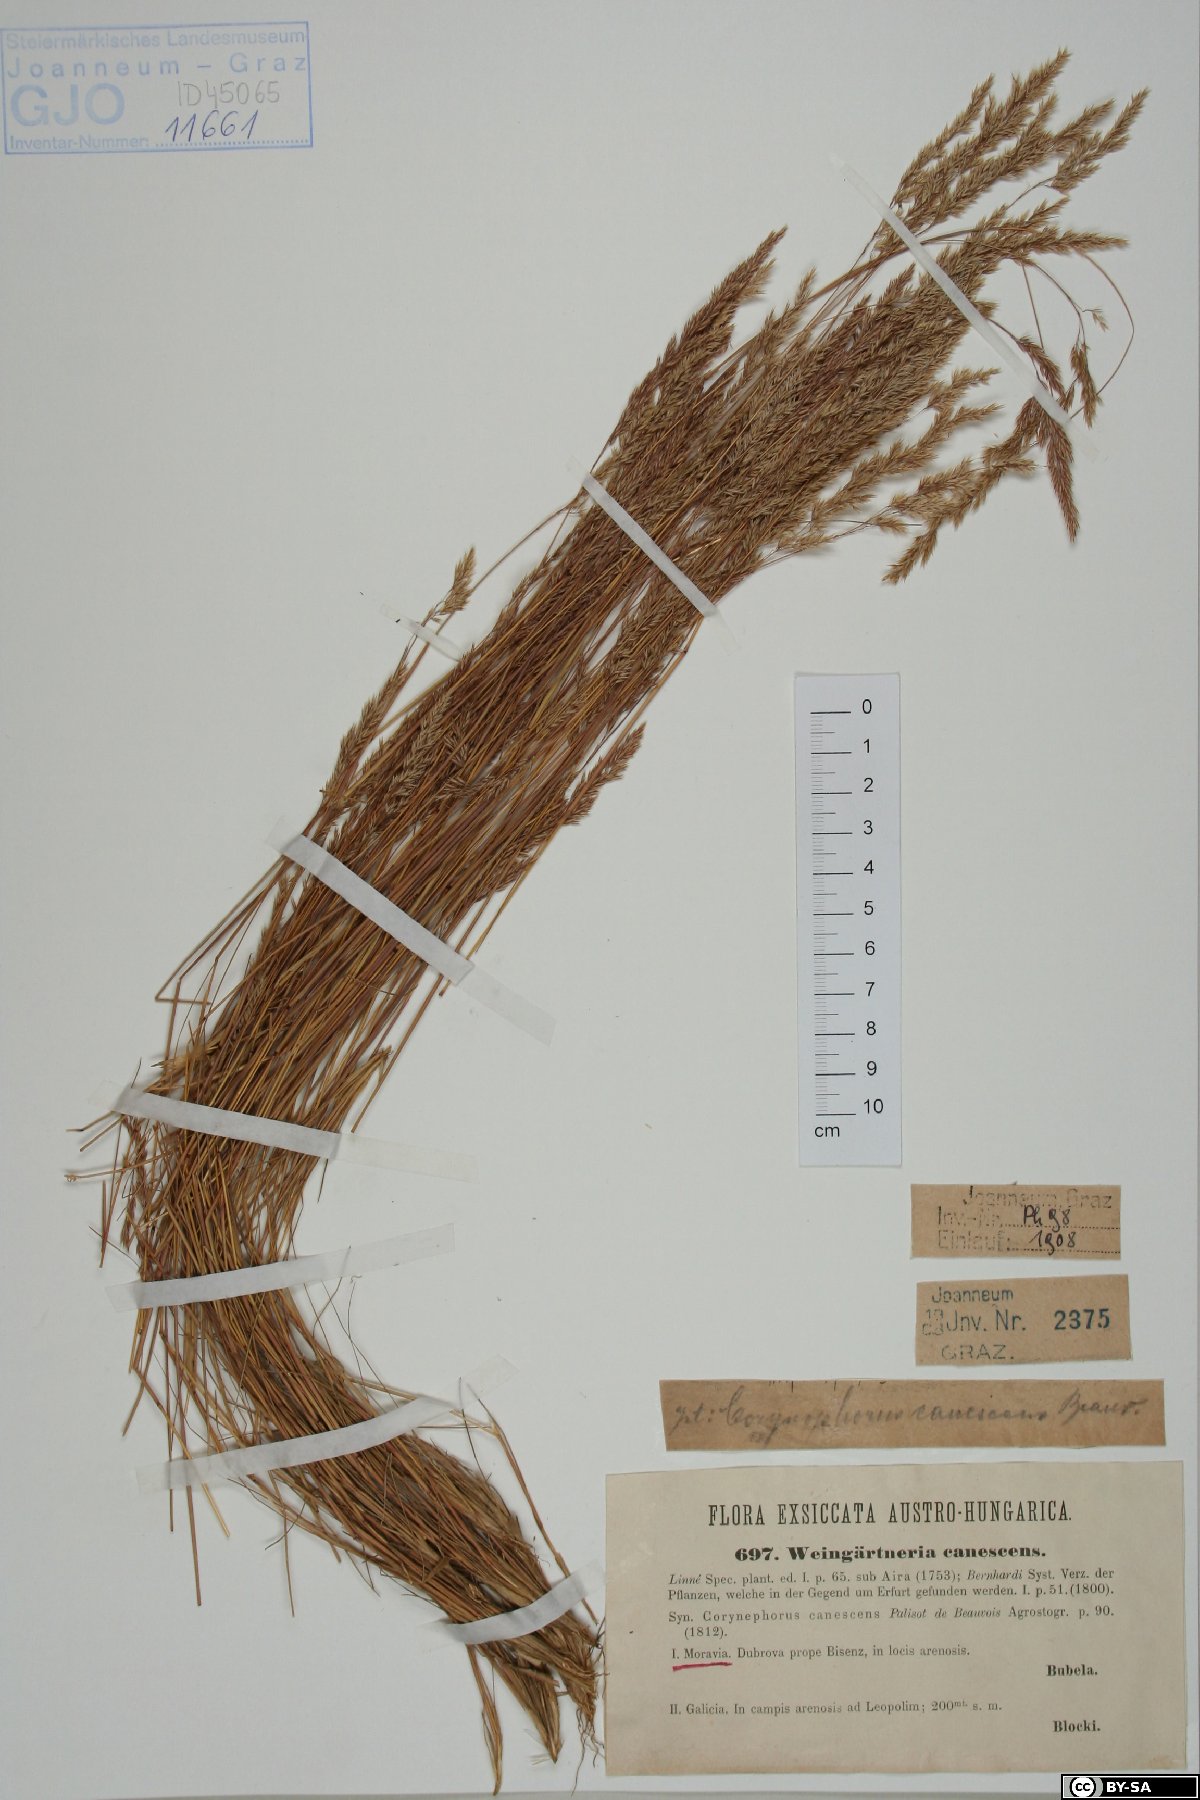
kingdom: Plantae
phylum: Tracheophyta
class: Liliopsida
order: Poales
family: Poaceae
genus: Corynephorus
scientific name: Corynephorus canescens
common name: Grey hair-grass
